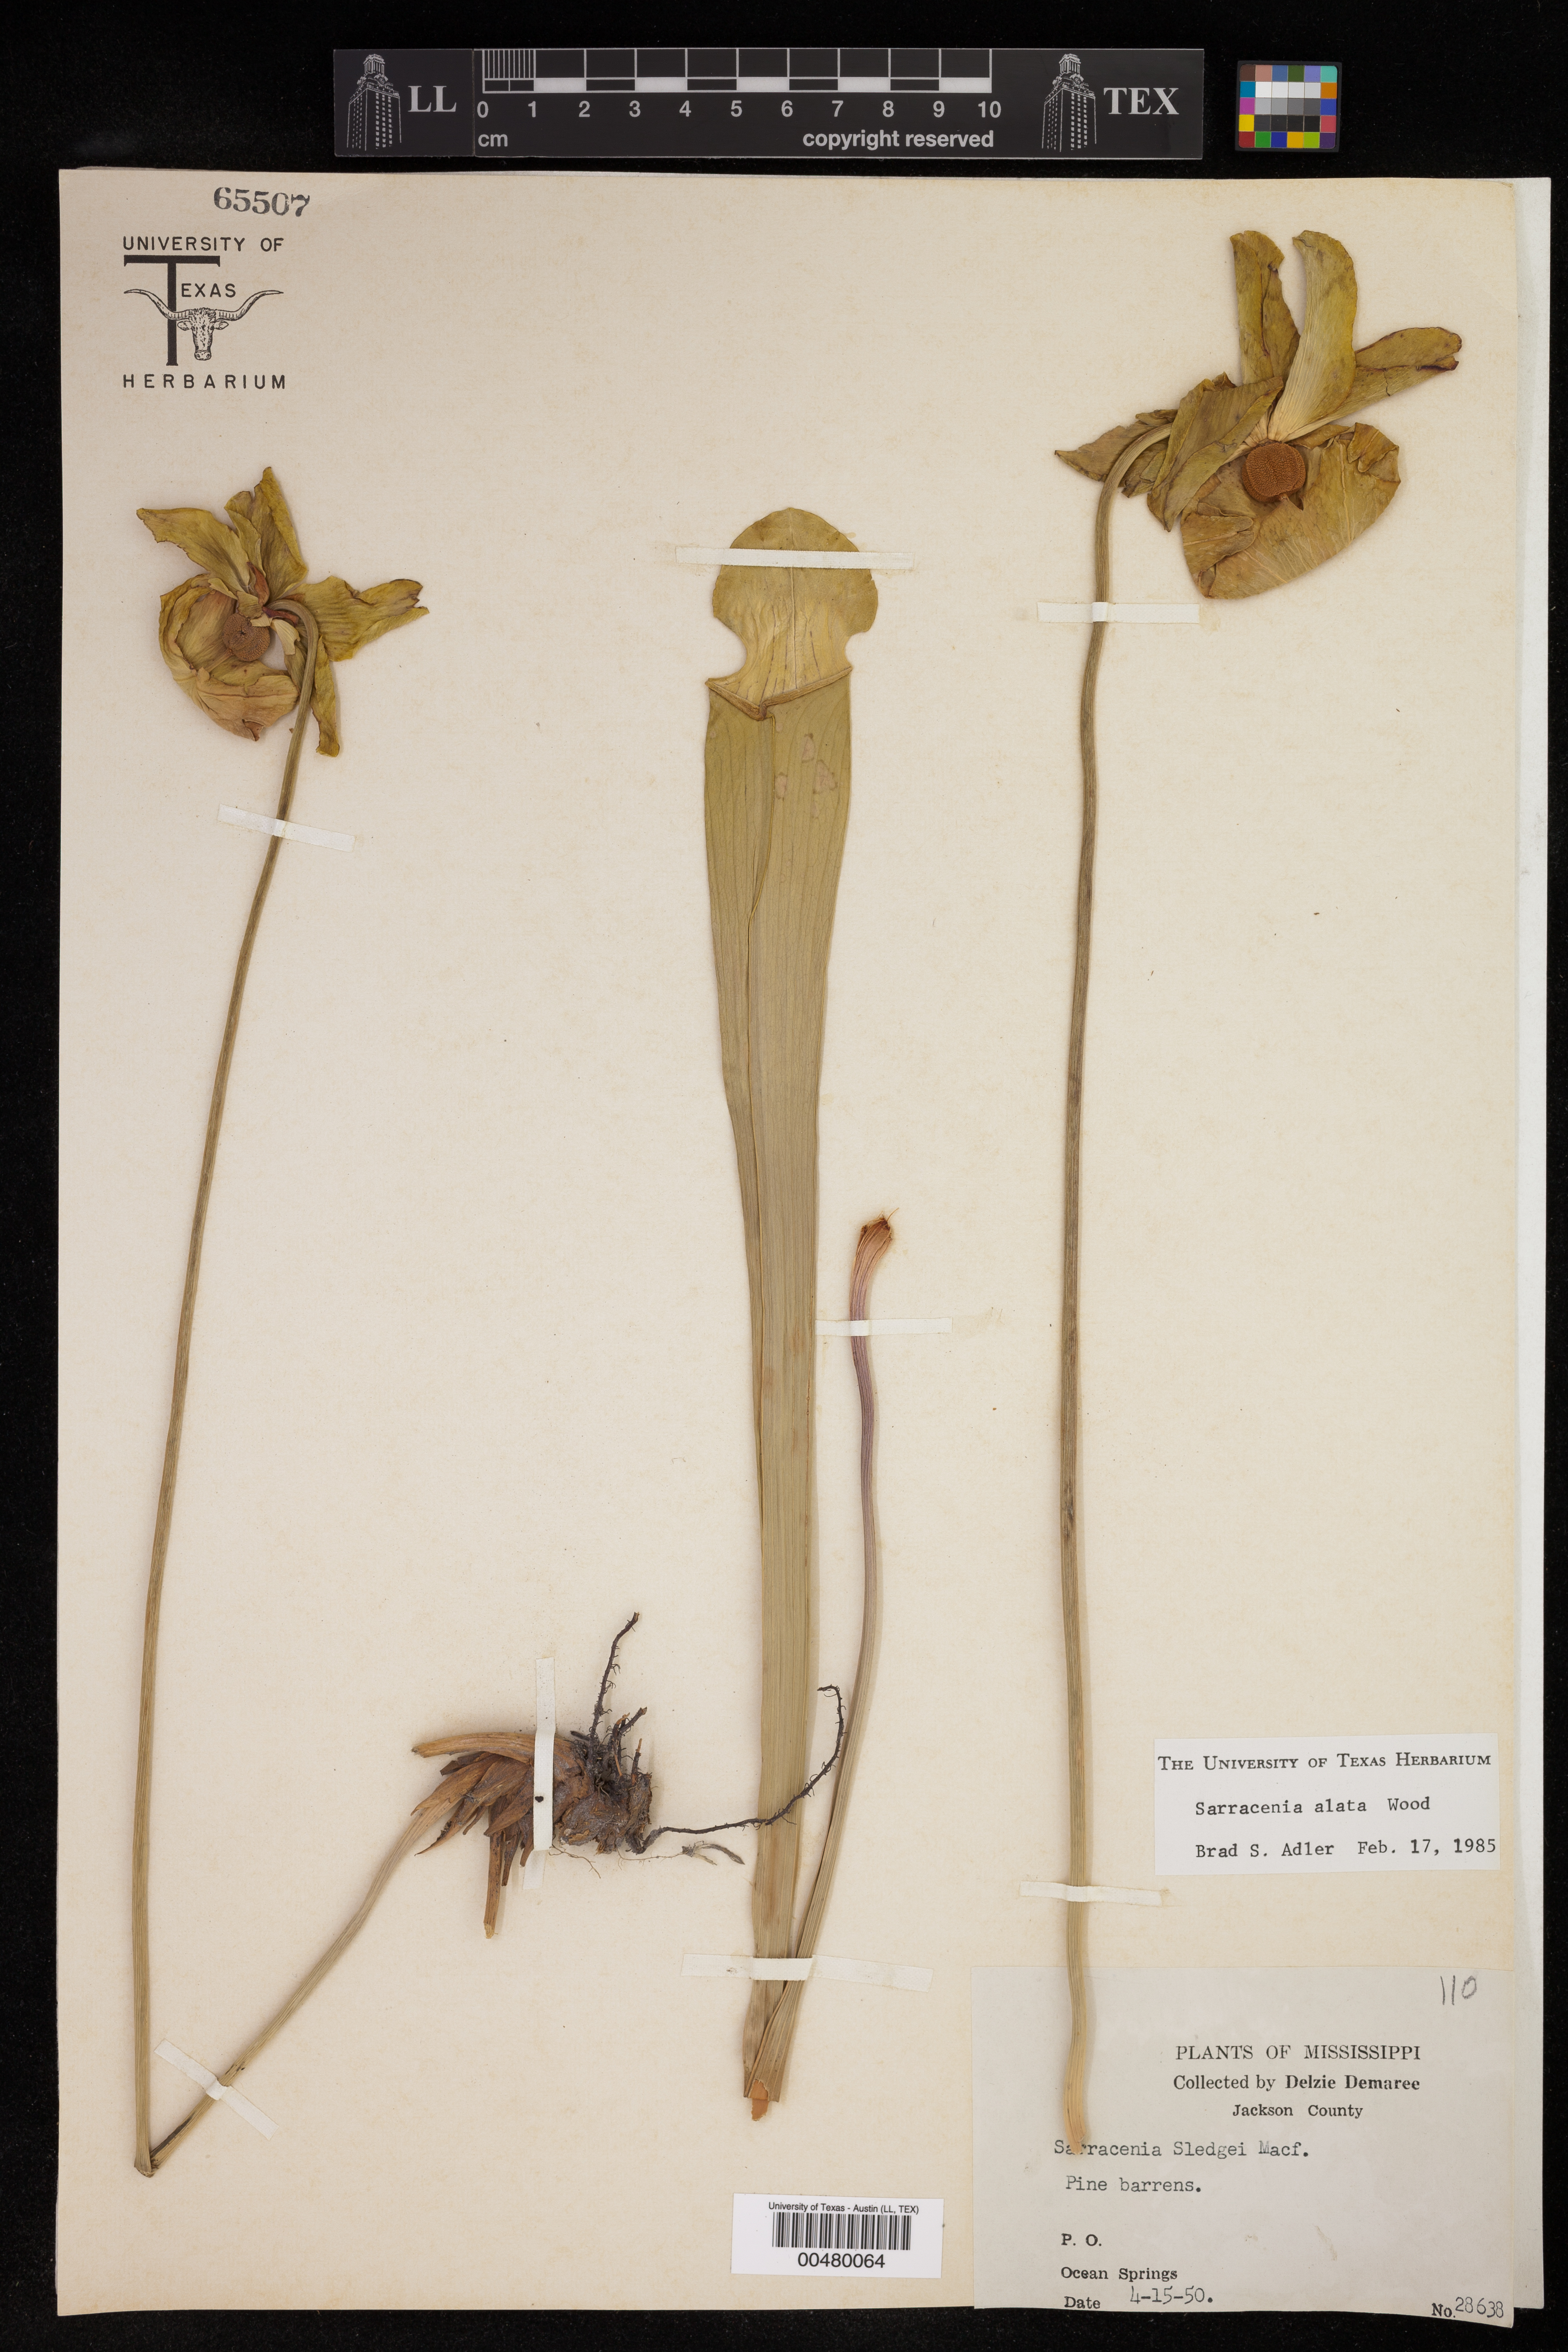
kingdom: Plantae
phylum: Tracheophyta
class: Magnoliopsida
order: Ericales
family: Sarraceniaceae
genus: Sarracenia
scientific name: Sarracenia alata
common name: Yellow trumpets
